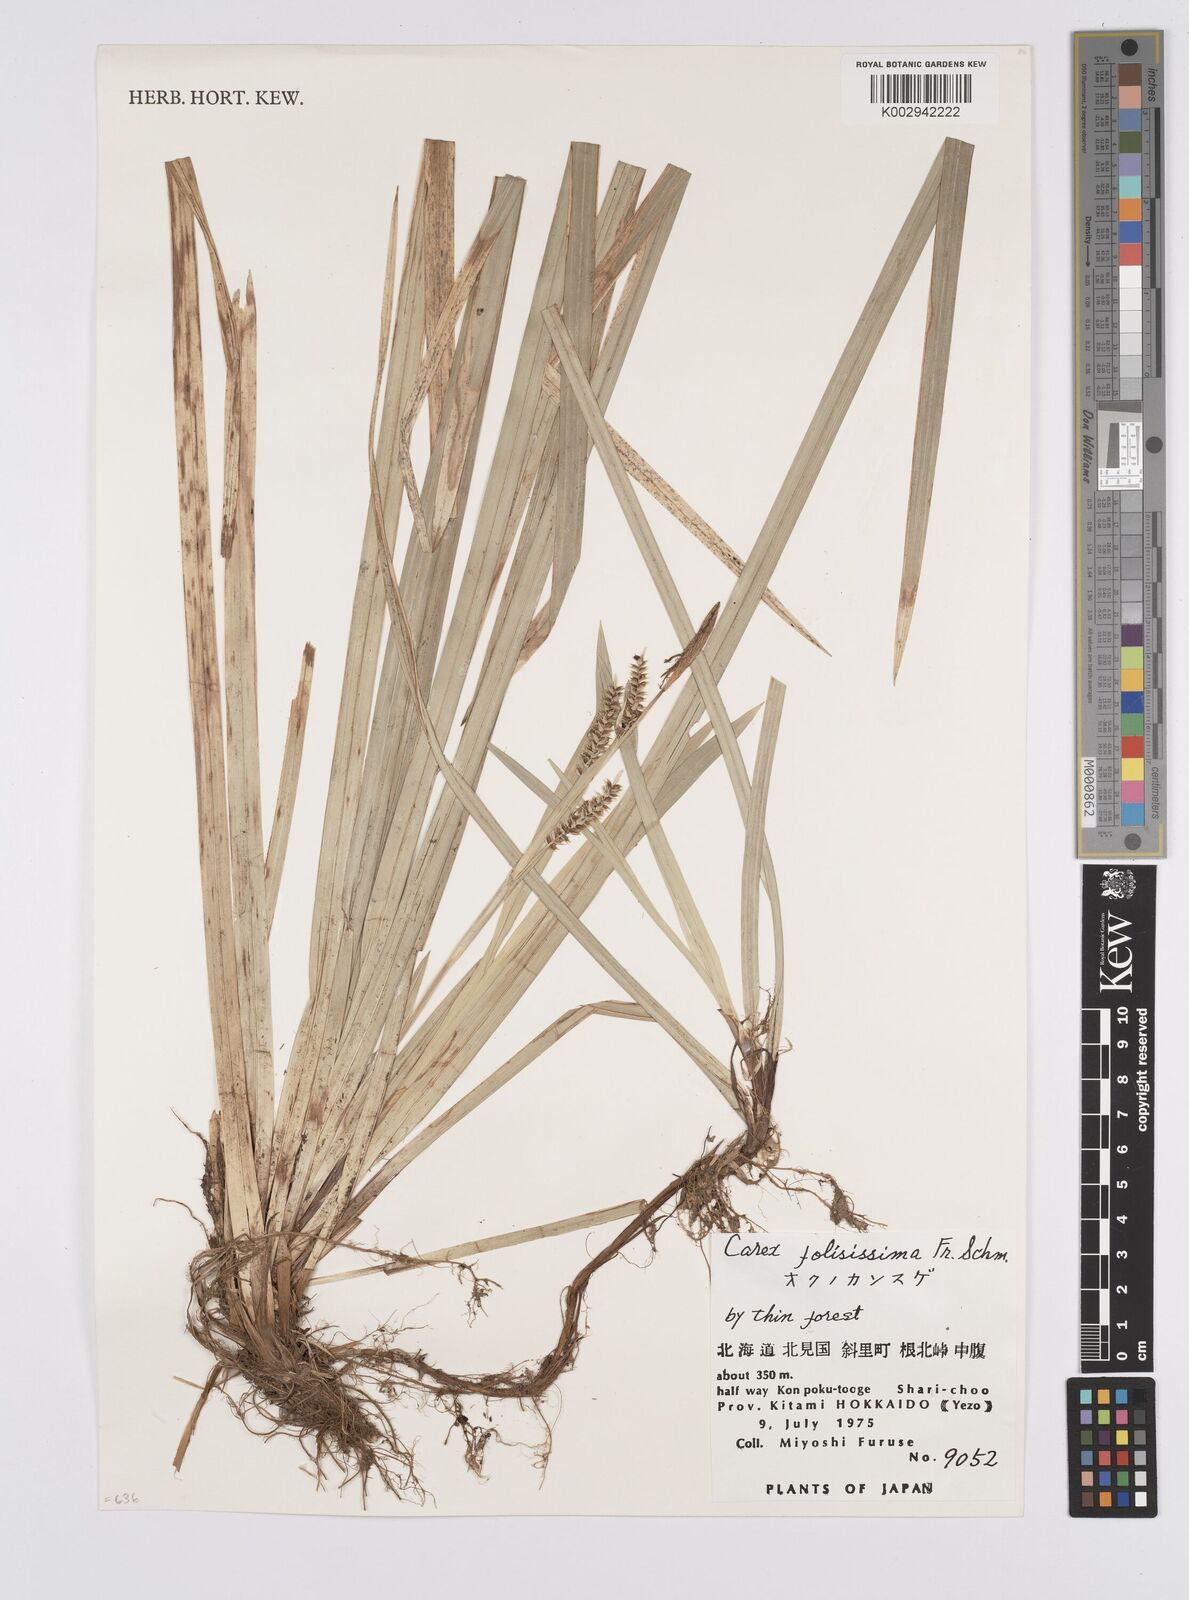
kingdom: Plantae
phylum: Tracheophyta
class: Liliopsida
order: Poales
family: Cyperaceae
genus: Carex
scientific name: Carex morrowii
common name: Japanese sedge
